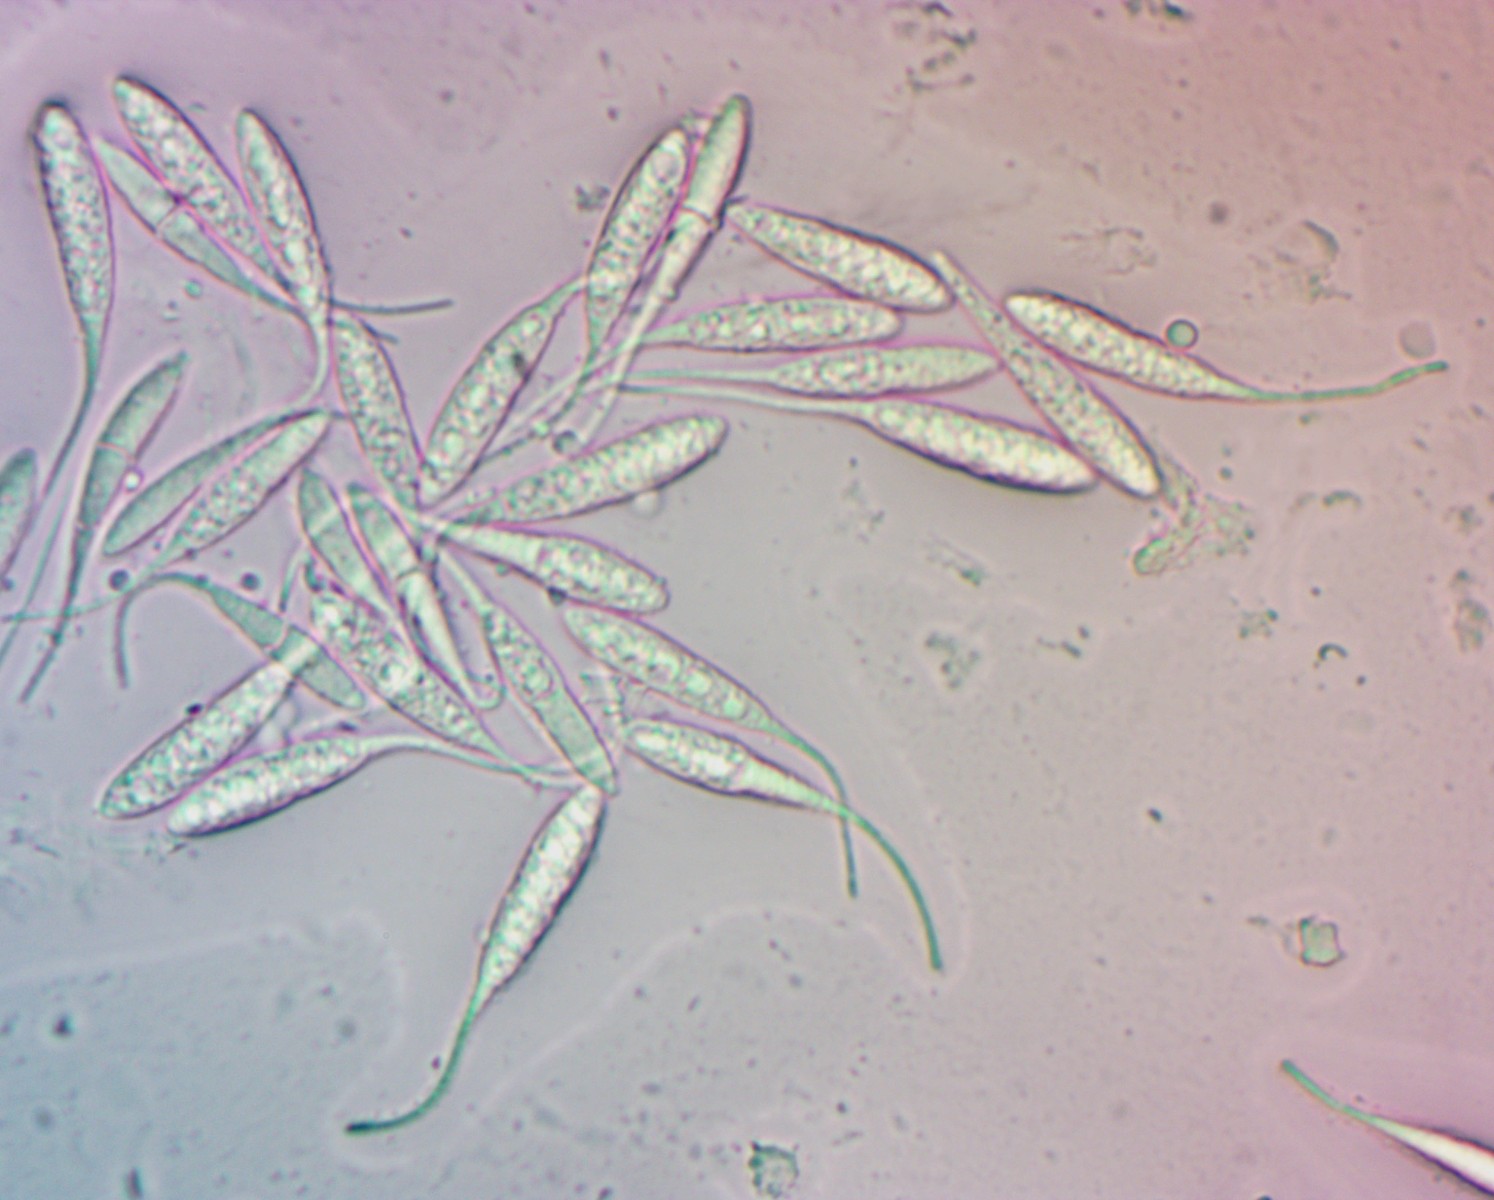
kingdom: Fungi
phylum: Ascomycota
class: Sordariomycetes
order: Amphisphaeriales
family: Amphisphaeriaceae
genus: Ceriospora
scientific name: Ceriospora polygonacearum
